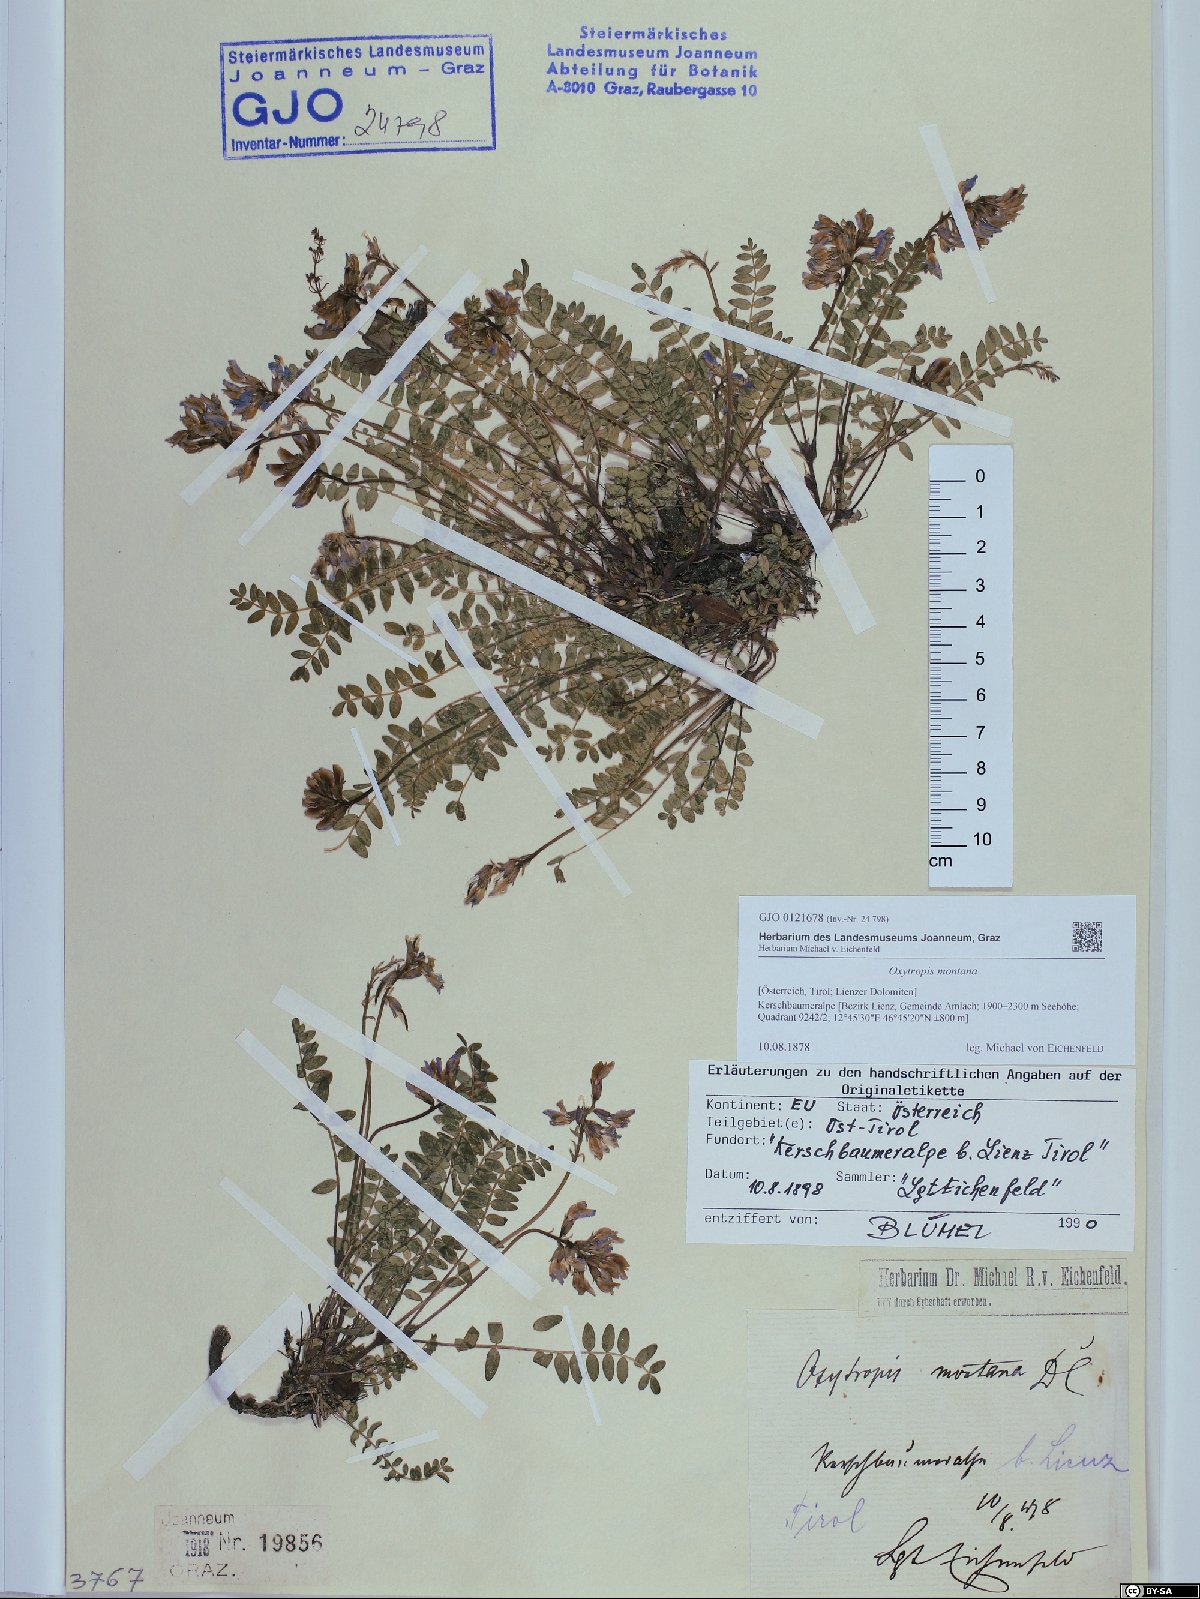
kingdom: Plantae
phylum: Tracheophyta
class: Magnoliopsida
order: Fabales
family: Fabaceae
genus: Oxytropis
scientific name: Oxytropis montana
